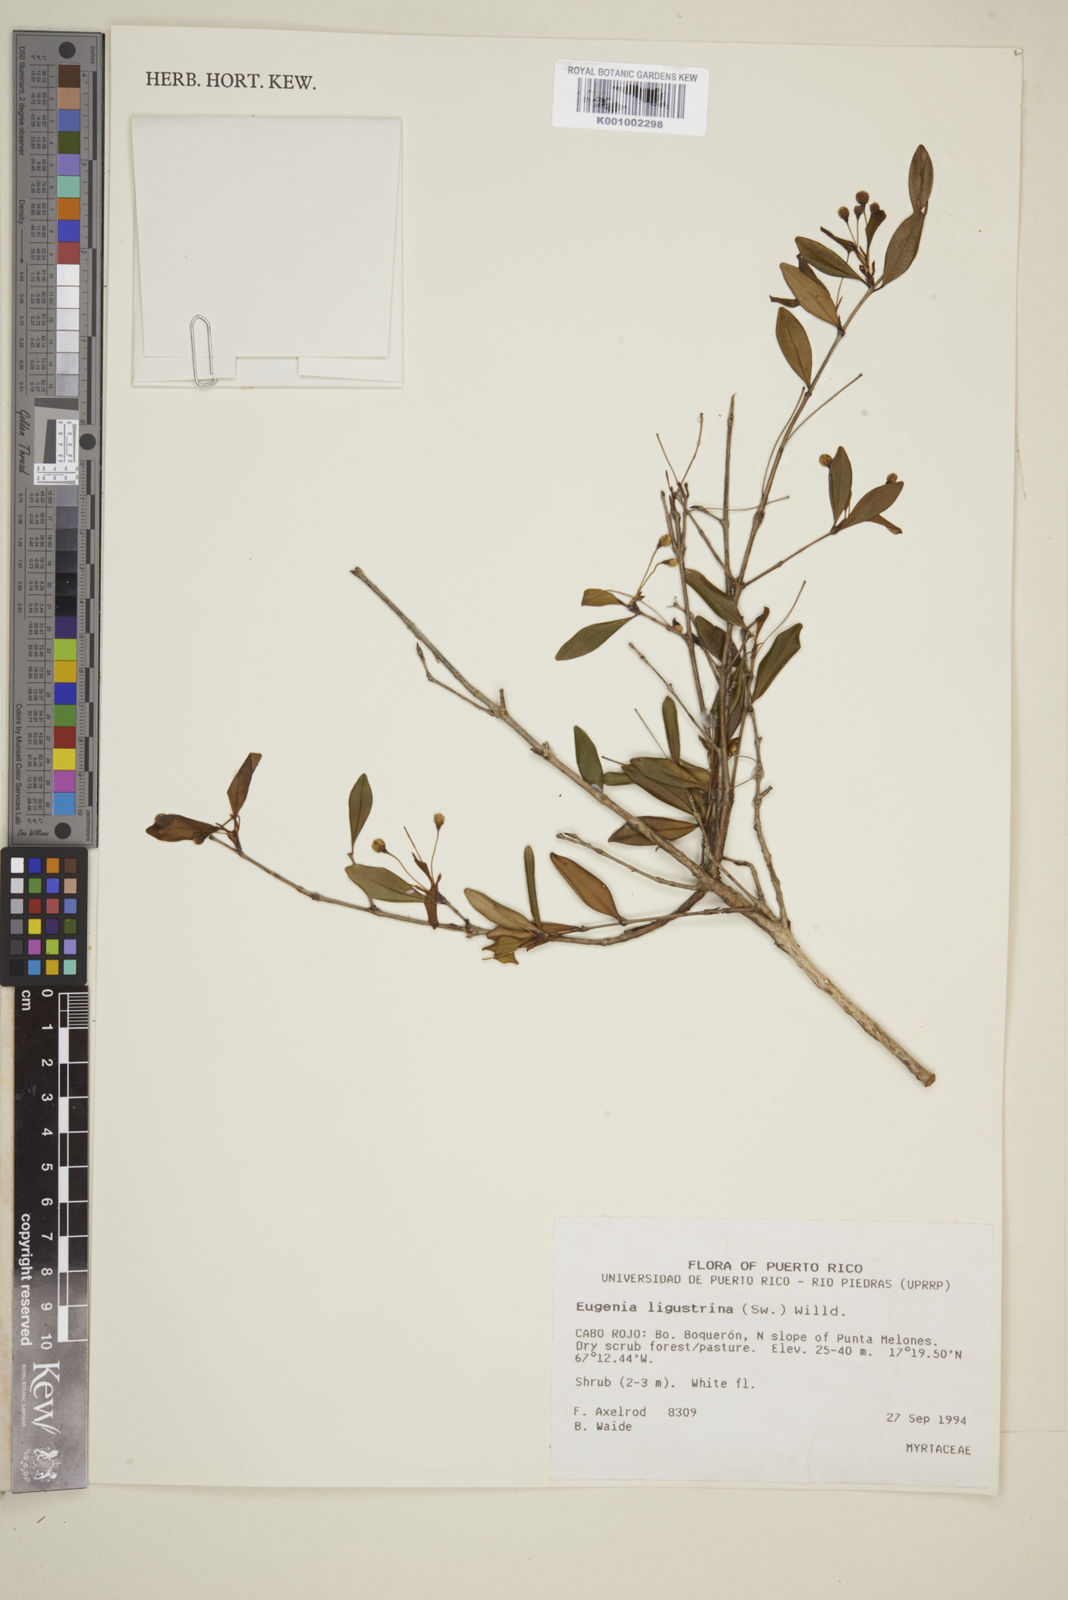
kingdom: Plantae
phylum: Tracheophyta
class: Magnoliopsida
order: Myrtales
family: Myrtaceae
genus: Eugenia
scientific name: Eugenia ligustrina
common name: Privet stopper
